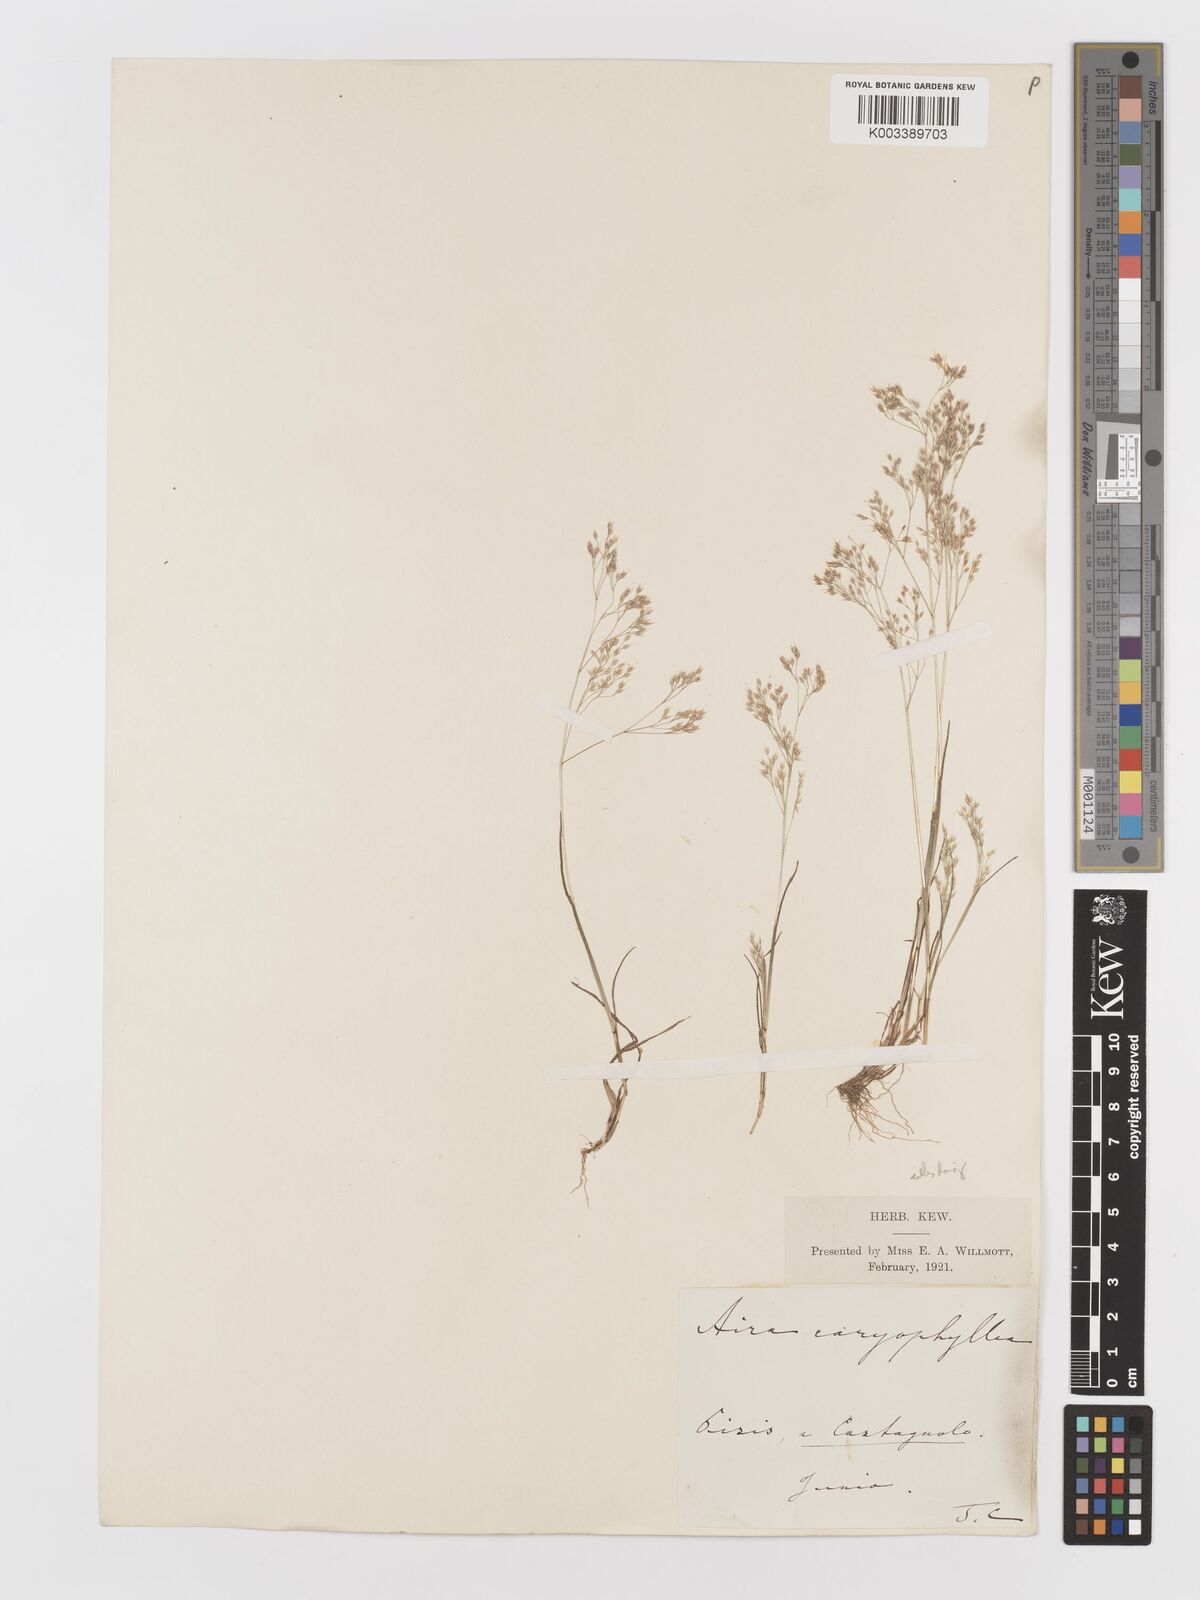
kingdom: Plantae
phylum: Tracheophyta
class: Liliopsida
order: Poales
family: Poaceae
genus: Aira
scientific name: Aira caryophyllea
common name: Silver hairgrass
